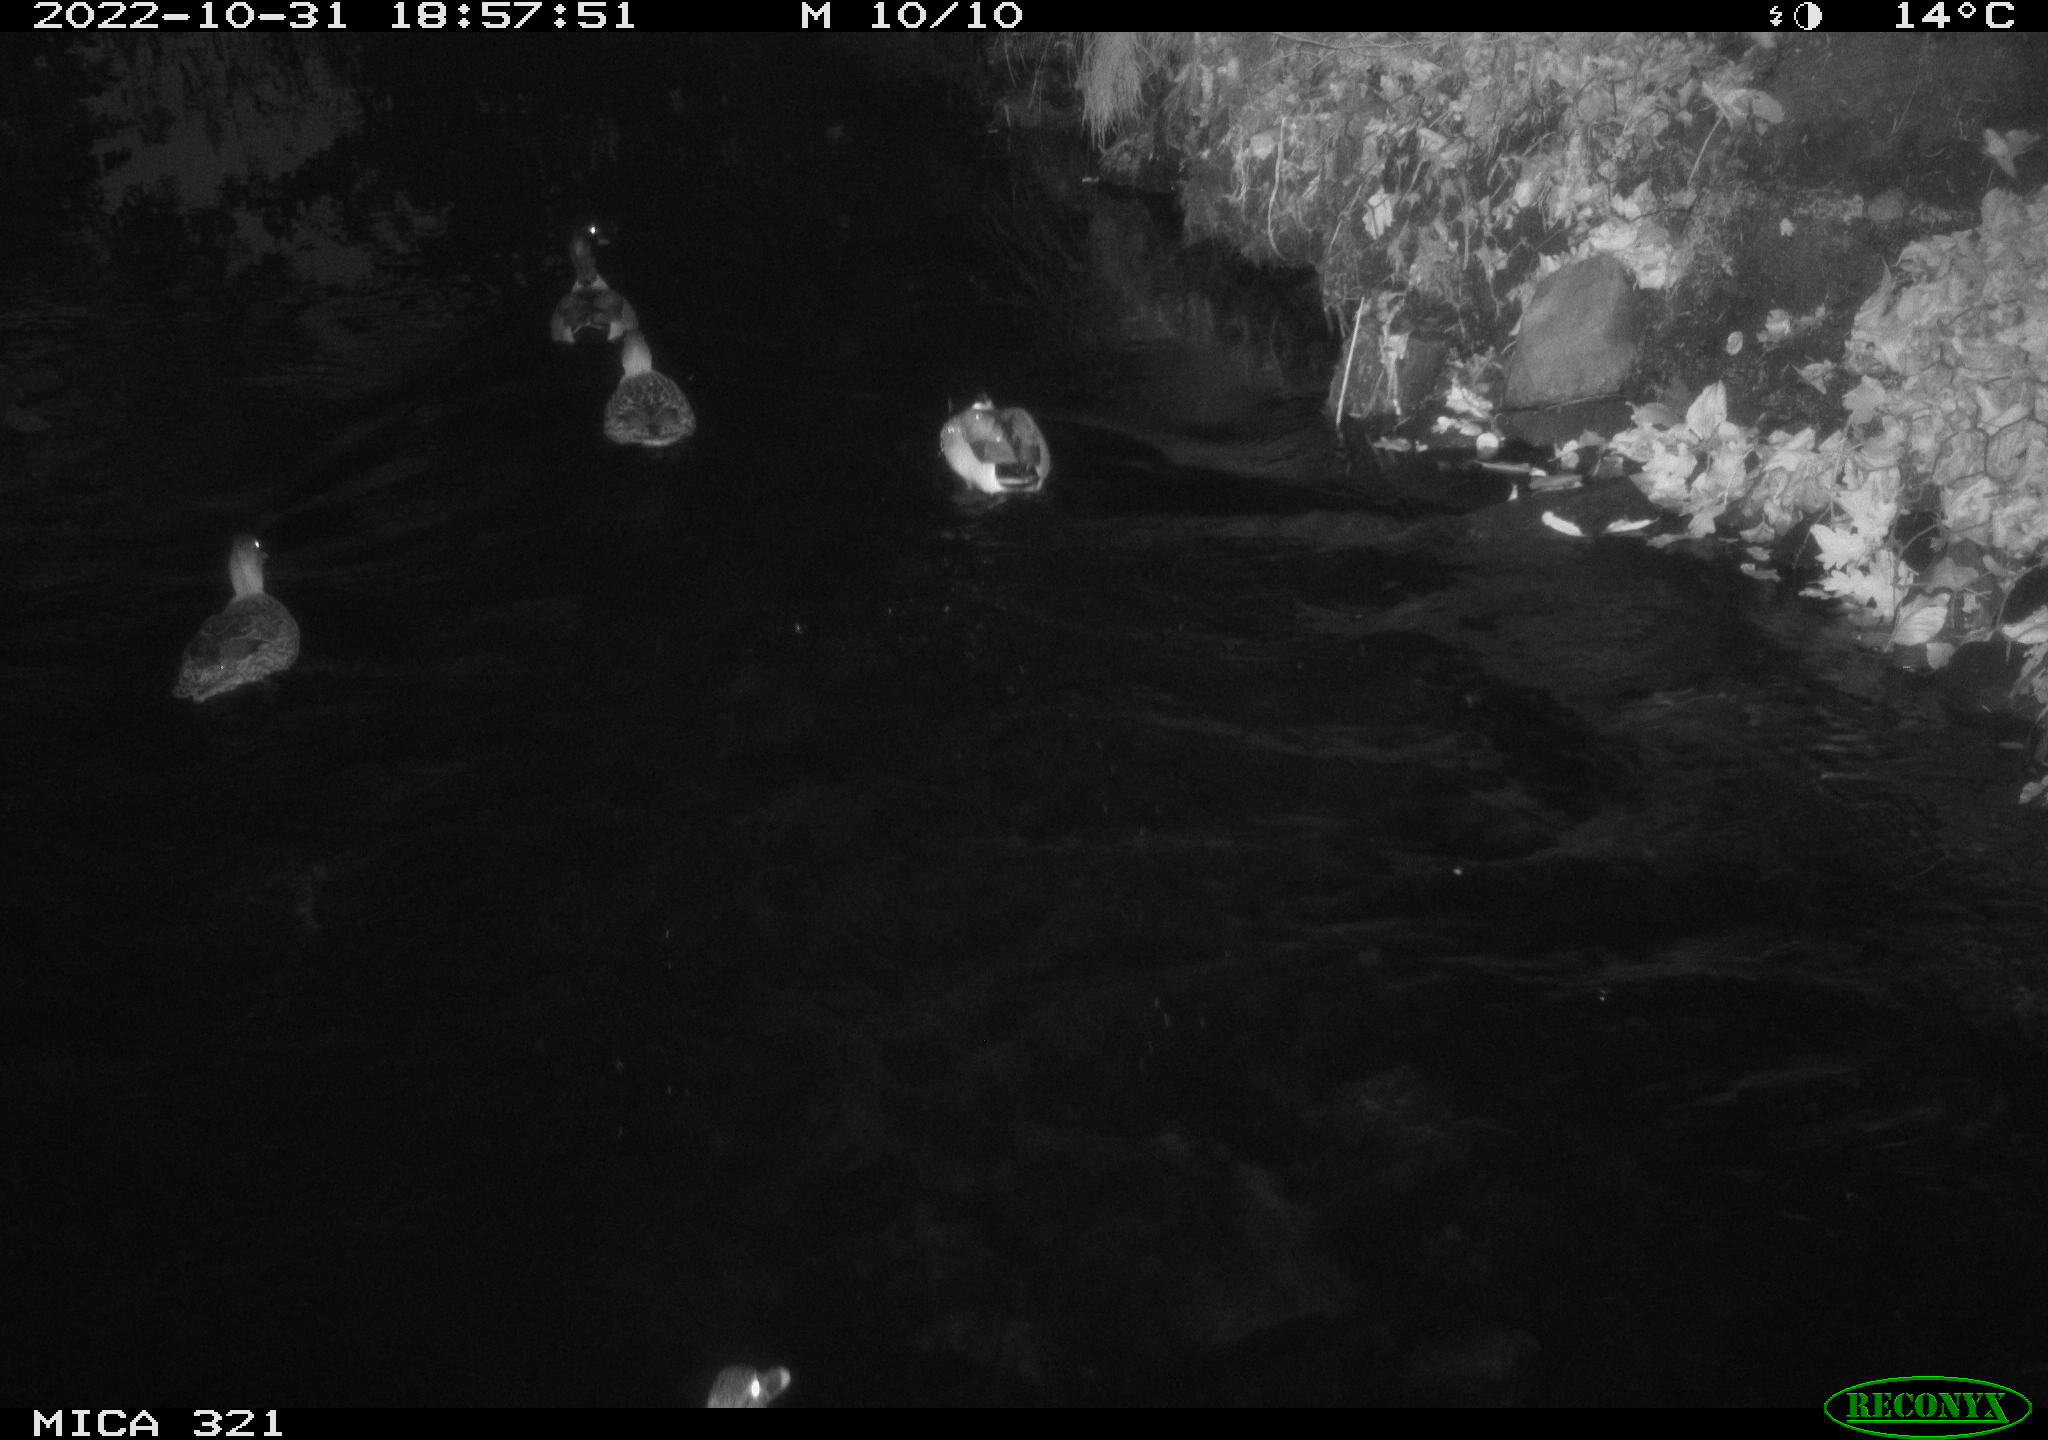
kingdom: Animalia
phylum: Chordata
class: Aves
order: Anseriformes
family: Anatidae
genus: Anas
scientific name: Anas
